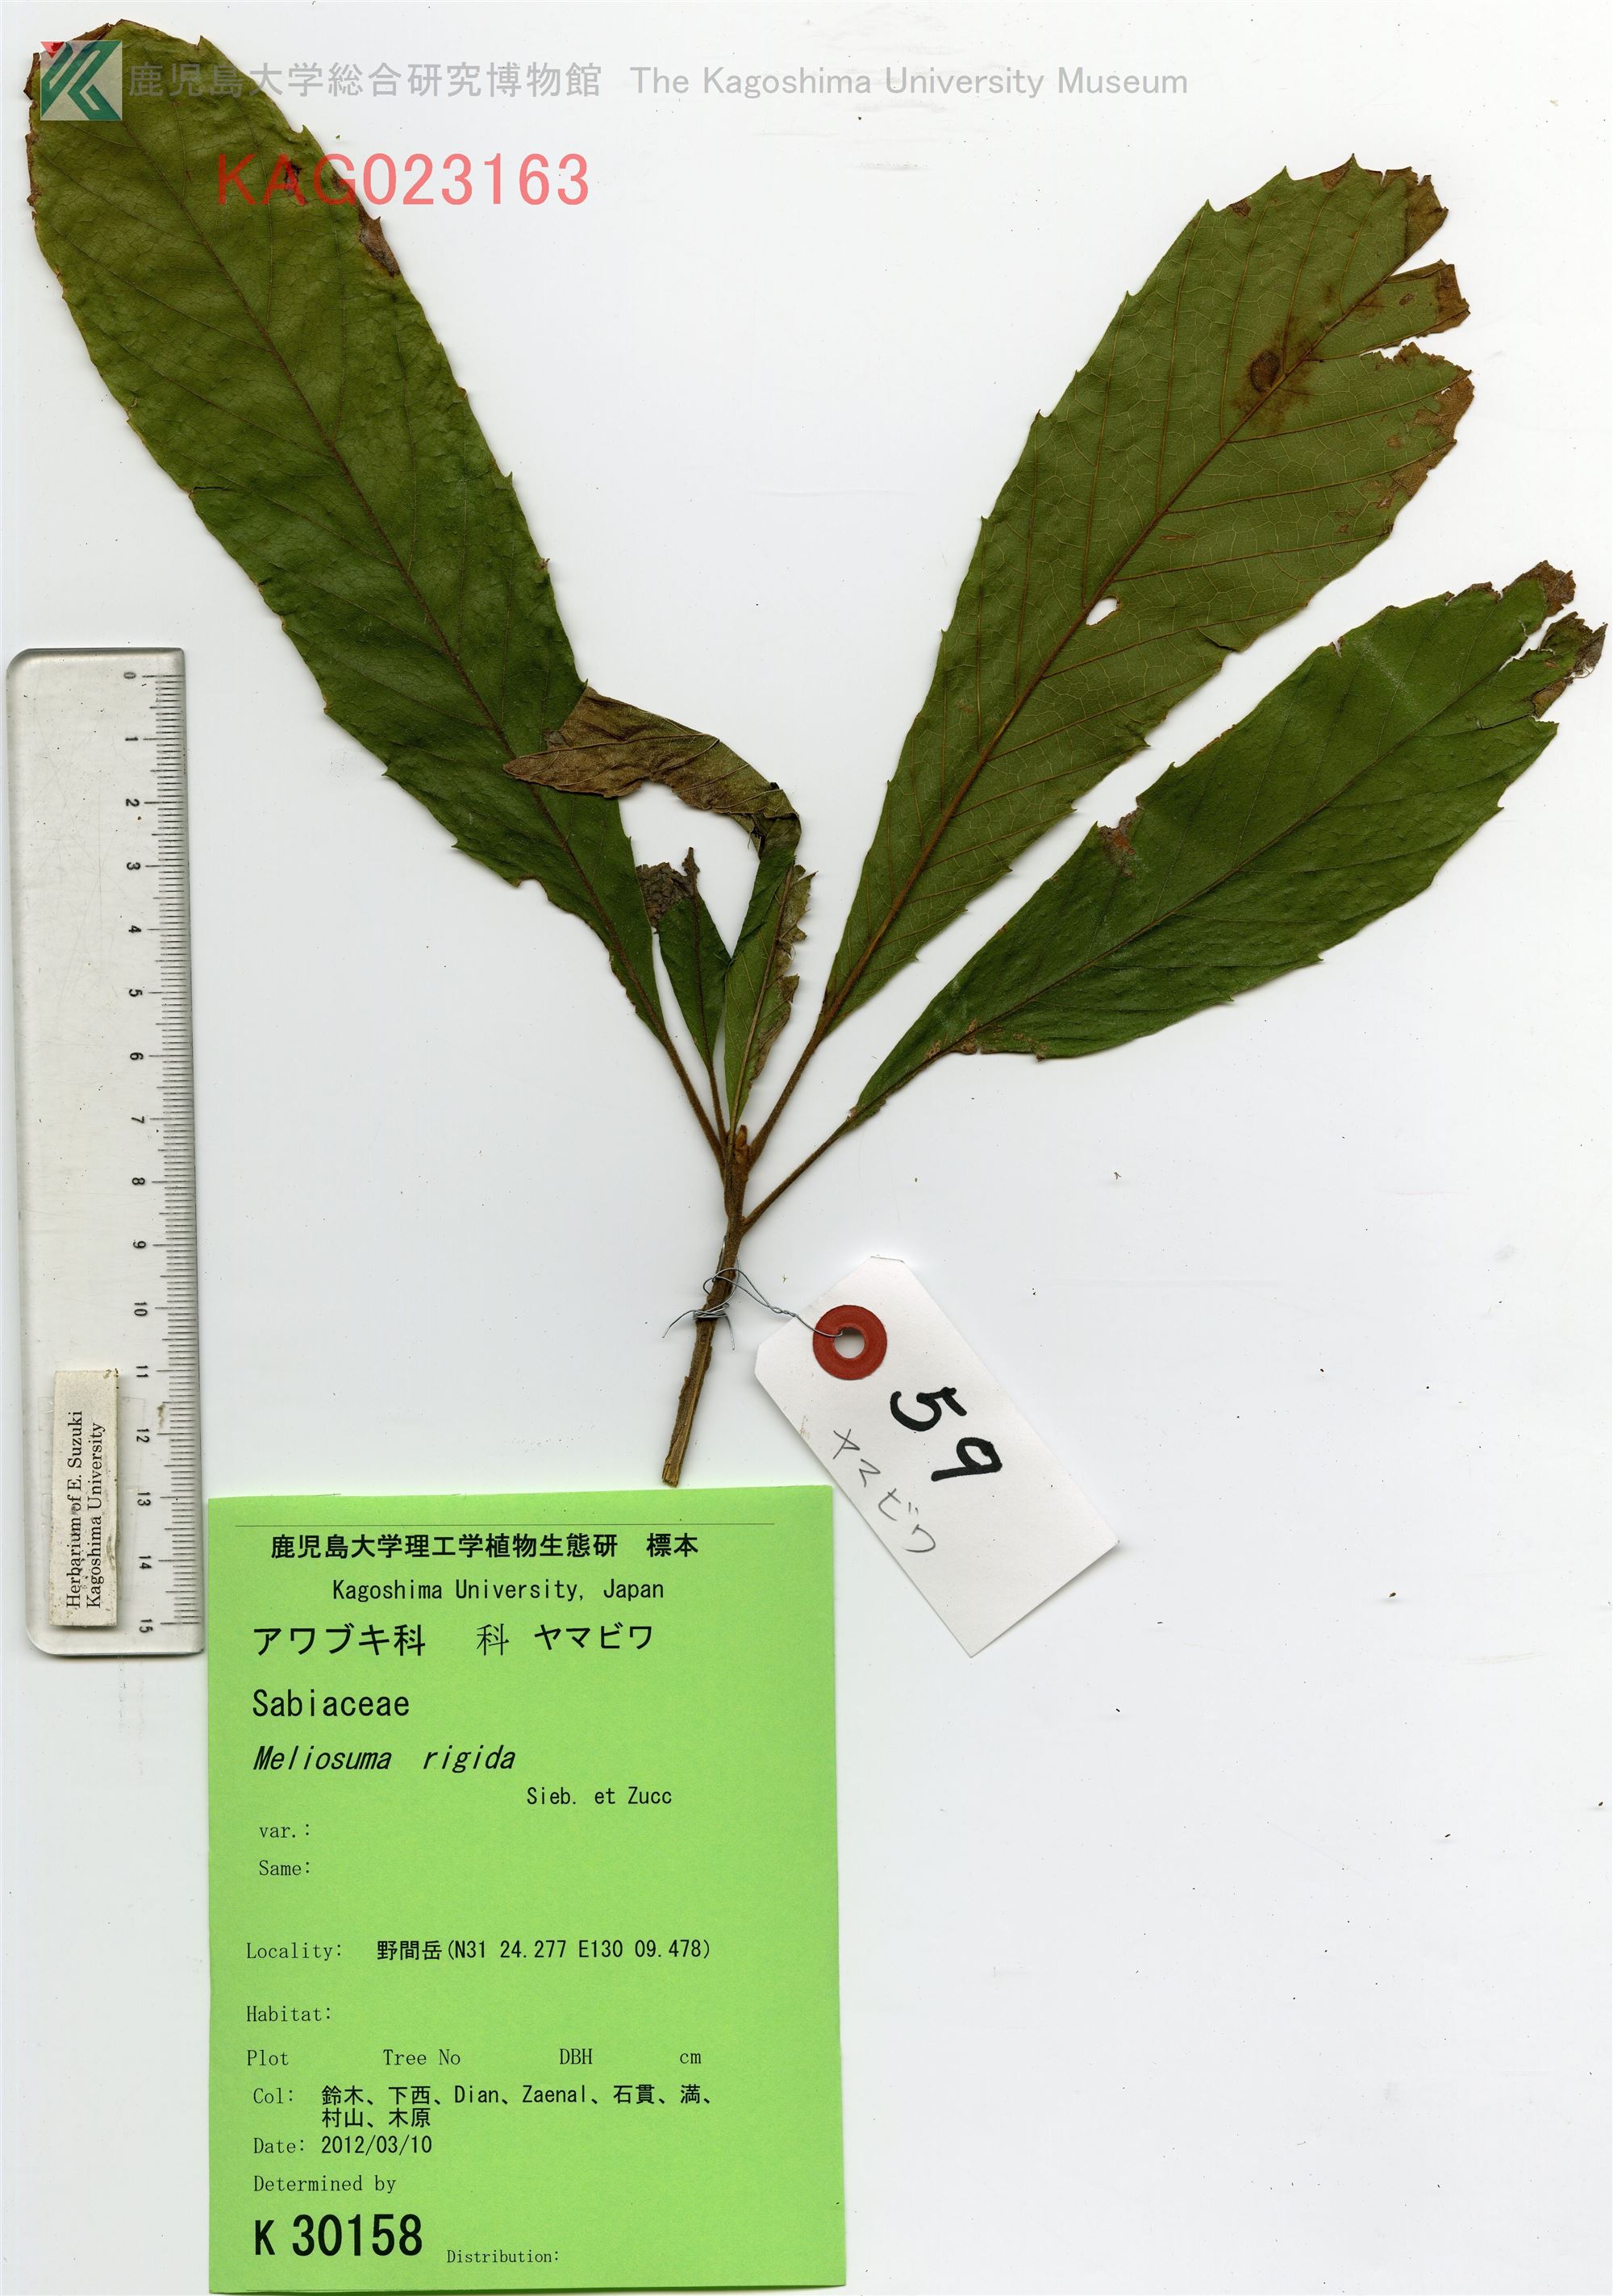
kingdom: Plantae
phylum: Tracheophyta
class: Magnoliopsida
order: Proteales
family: Sabiaceae
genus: Meliosma
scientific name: Meliosma rigida
